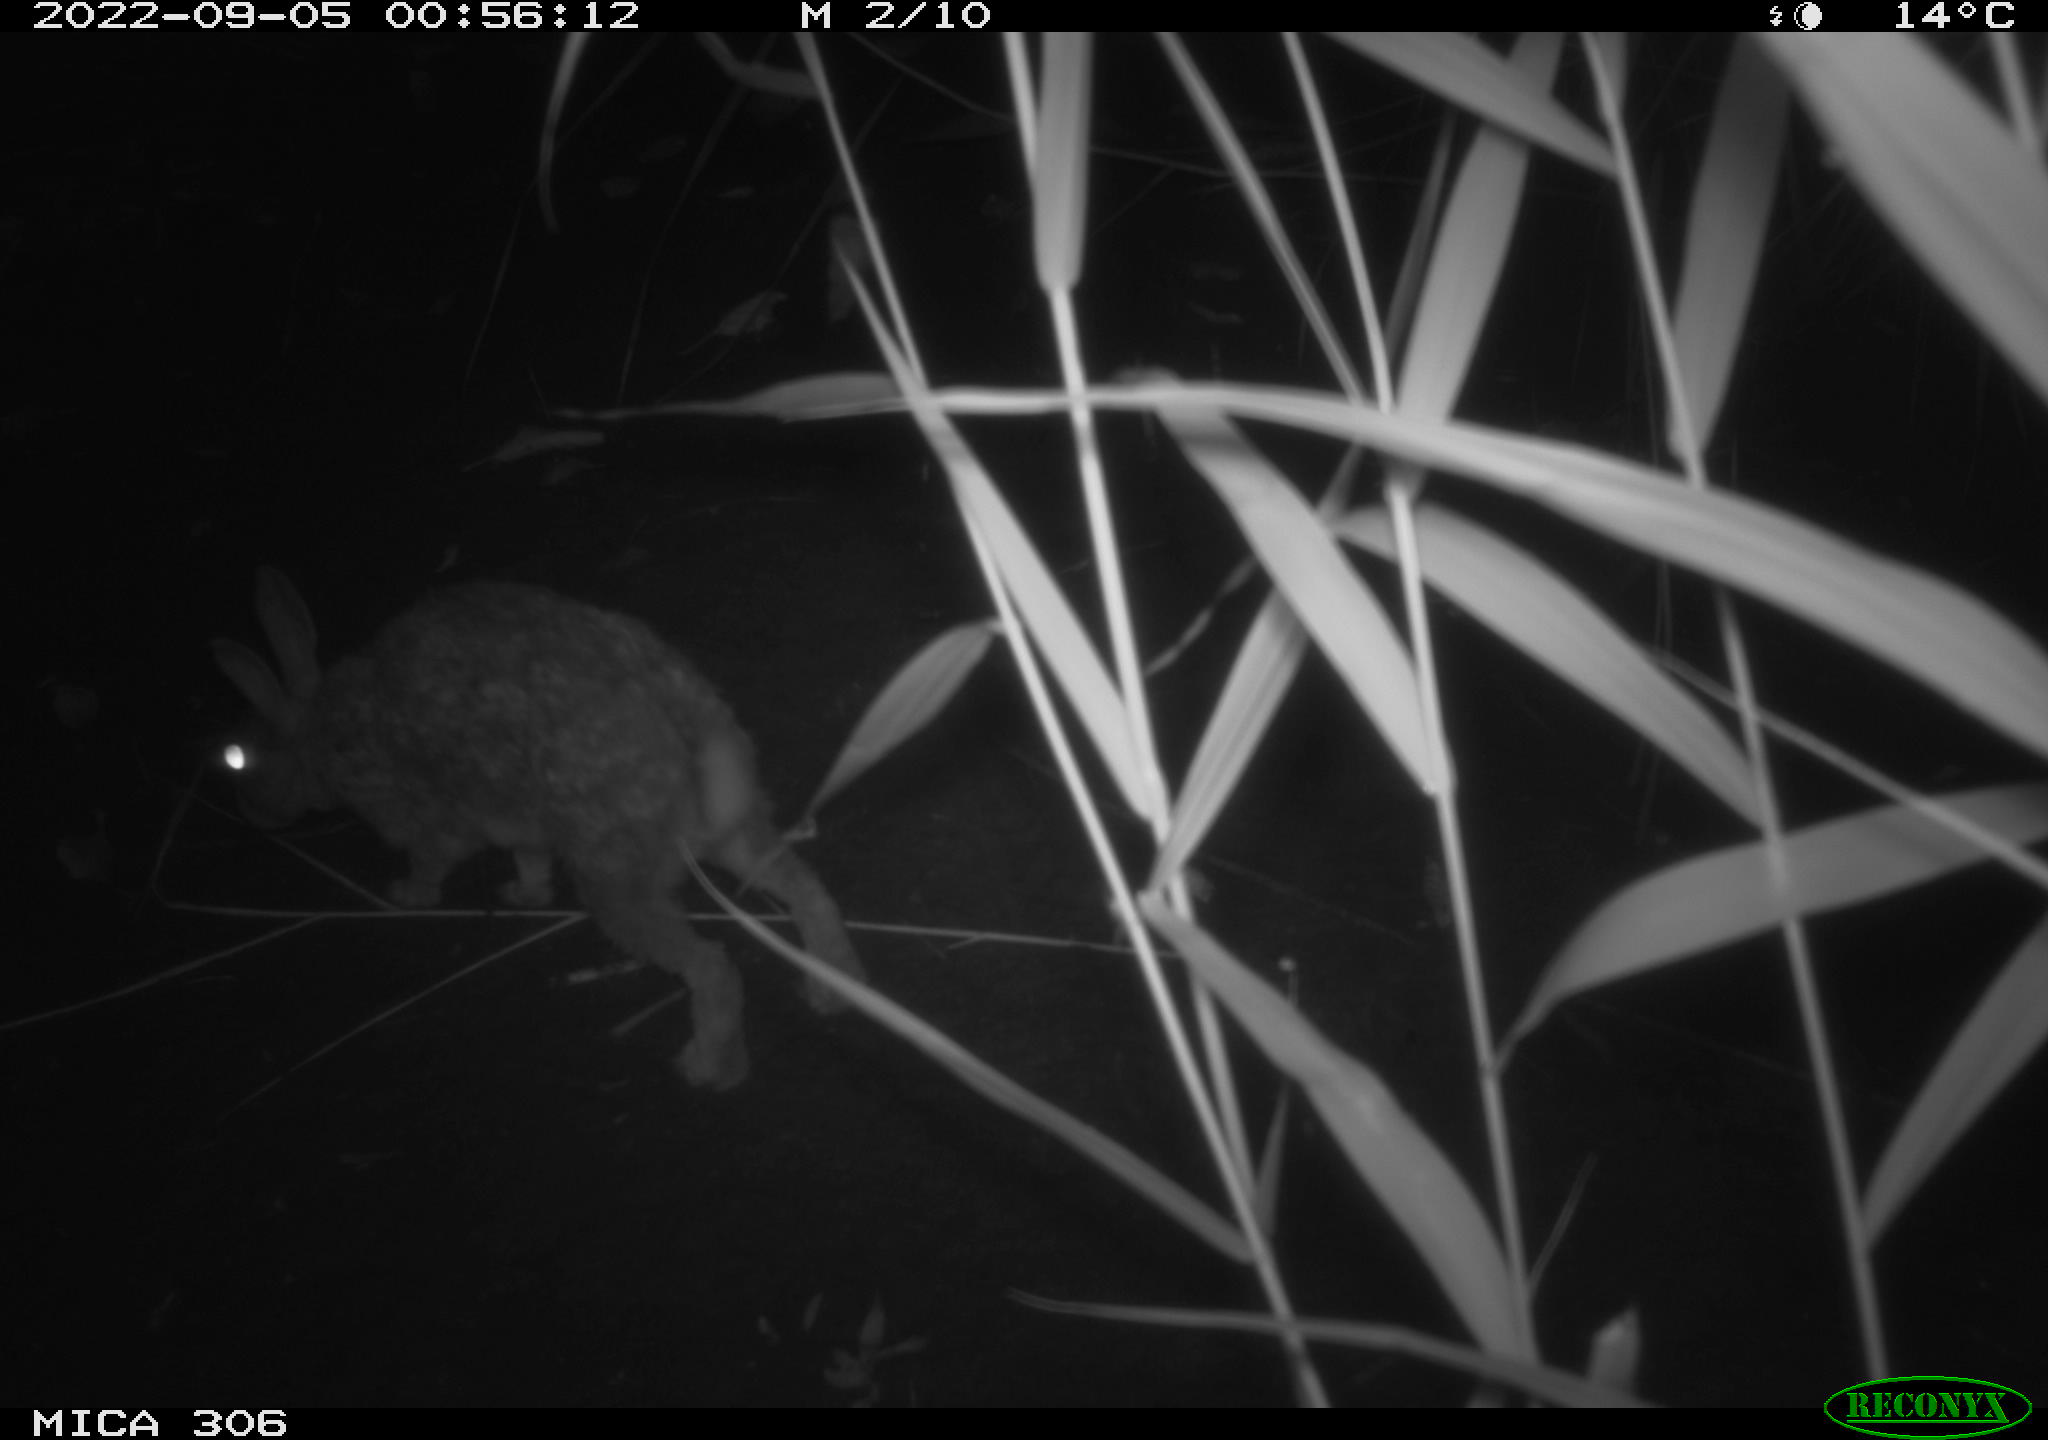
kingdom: Animalia
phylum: Chordata
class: Mammalia
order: Lagomorpha
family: Leporidae
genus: Oryctolagus
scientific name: Oryctolagus cuniculus
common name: European rabbit
